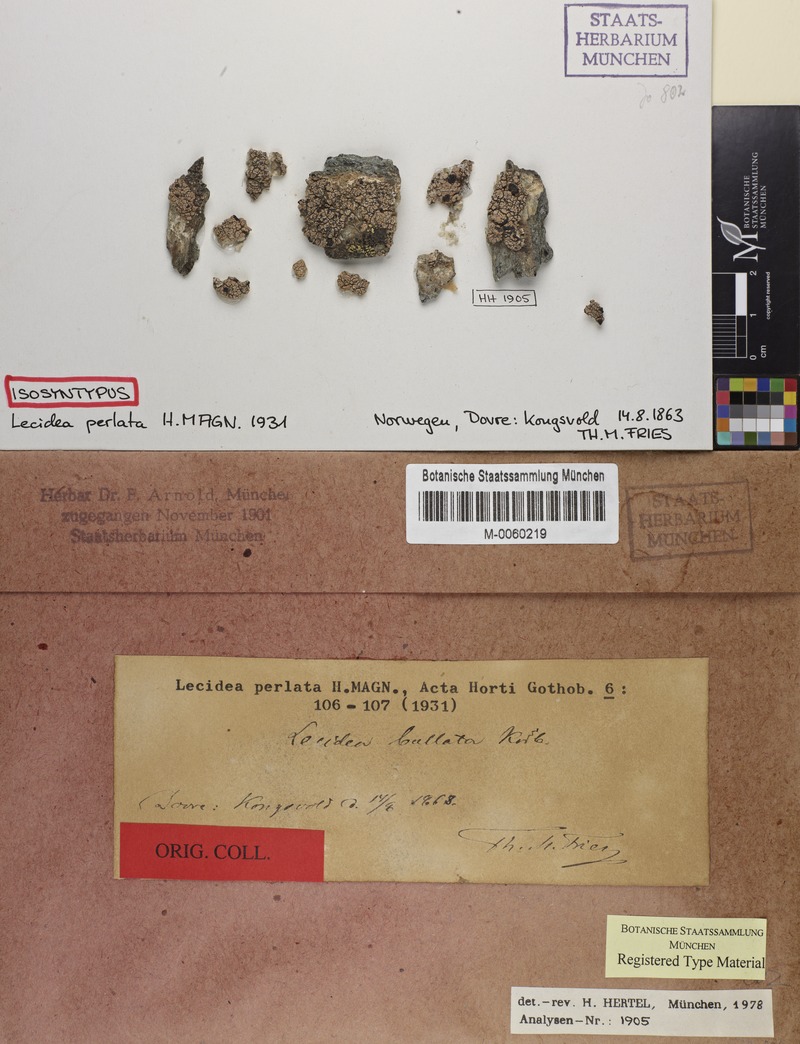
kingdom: Fungi
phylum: Ascomycota
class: Lecanoromycetes
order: Lecanorales
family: Tephromelataceae
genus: Calvitimela
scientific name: Calvitimela perlata
